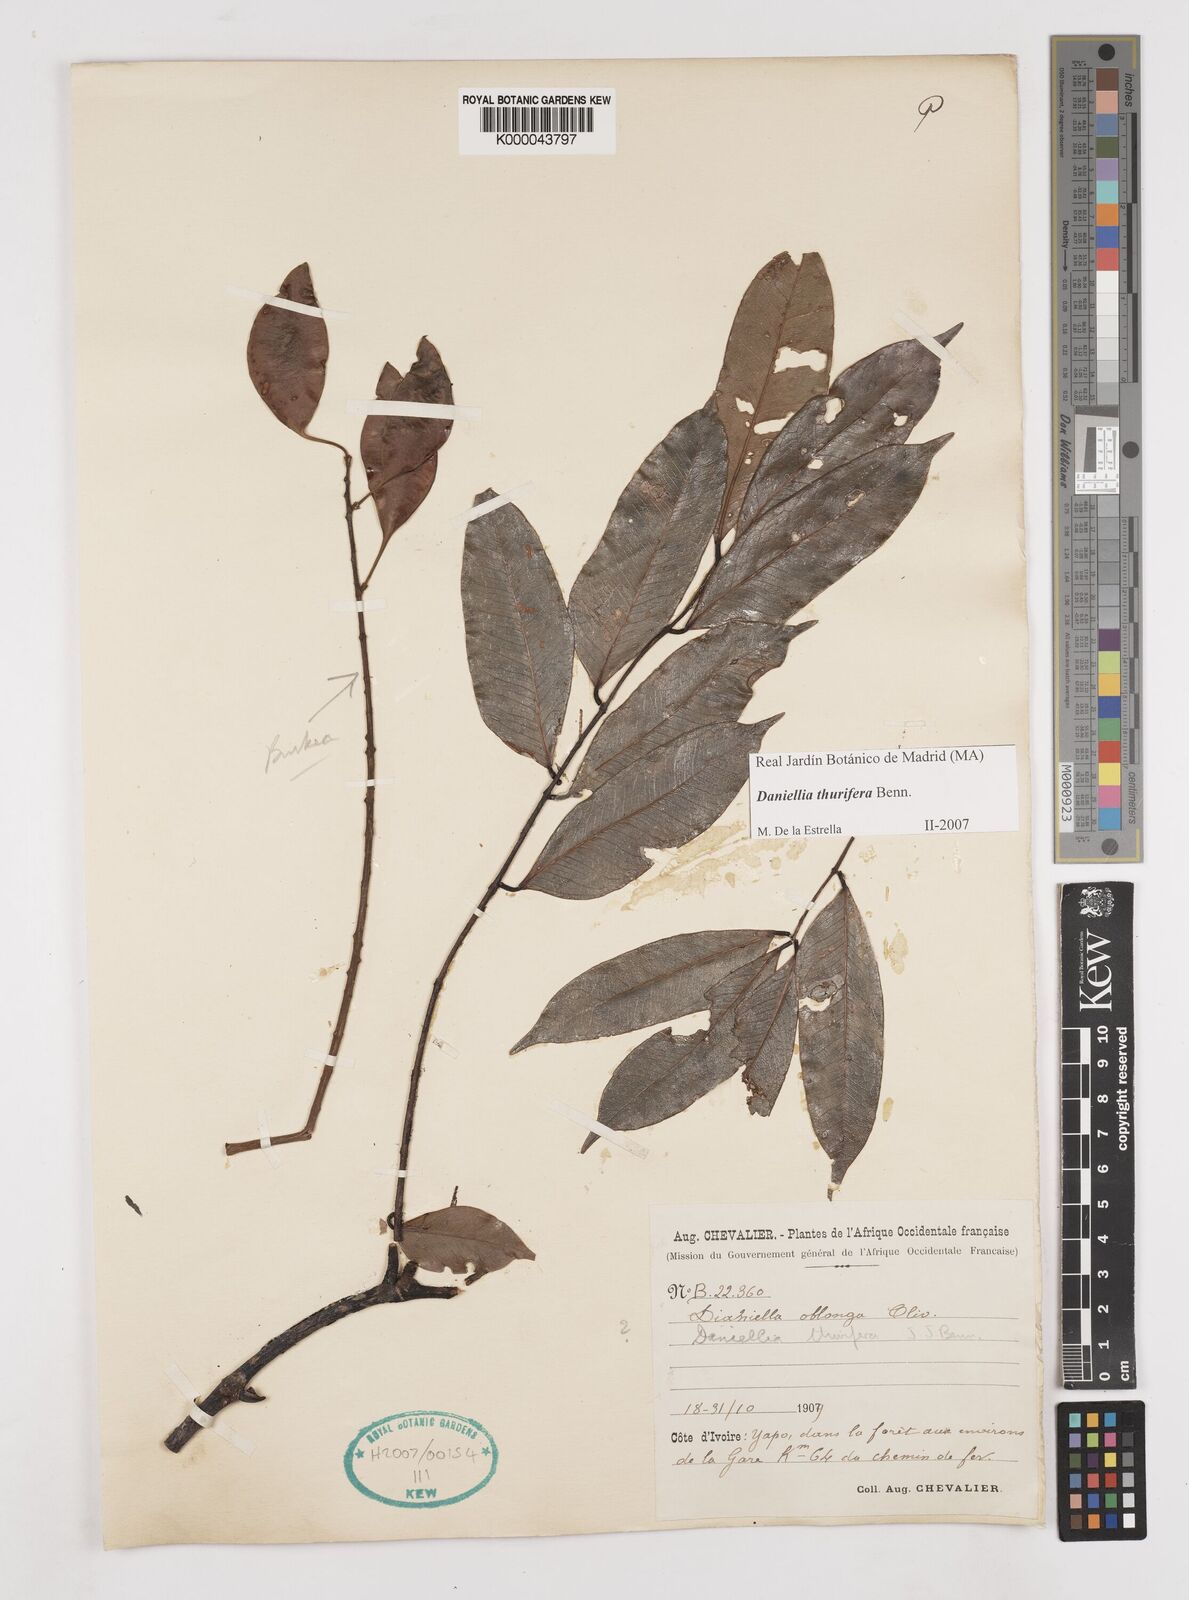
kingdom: Plantae
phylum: Tracheophyta
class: Magnoliopsida
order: Fabales
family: Fabaceae
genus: Daniellia
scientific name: Daniellia thurifera
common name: Sudan copal
